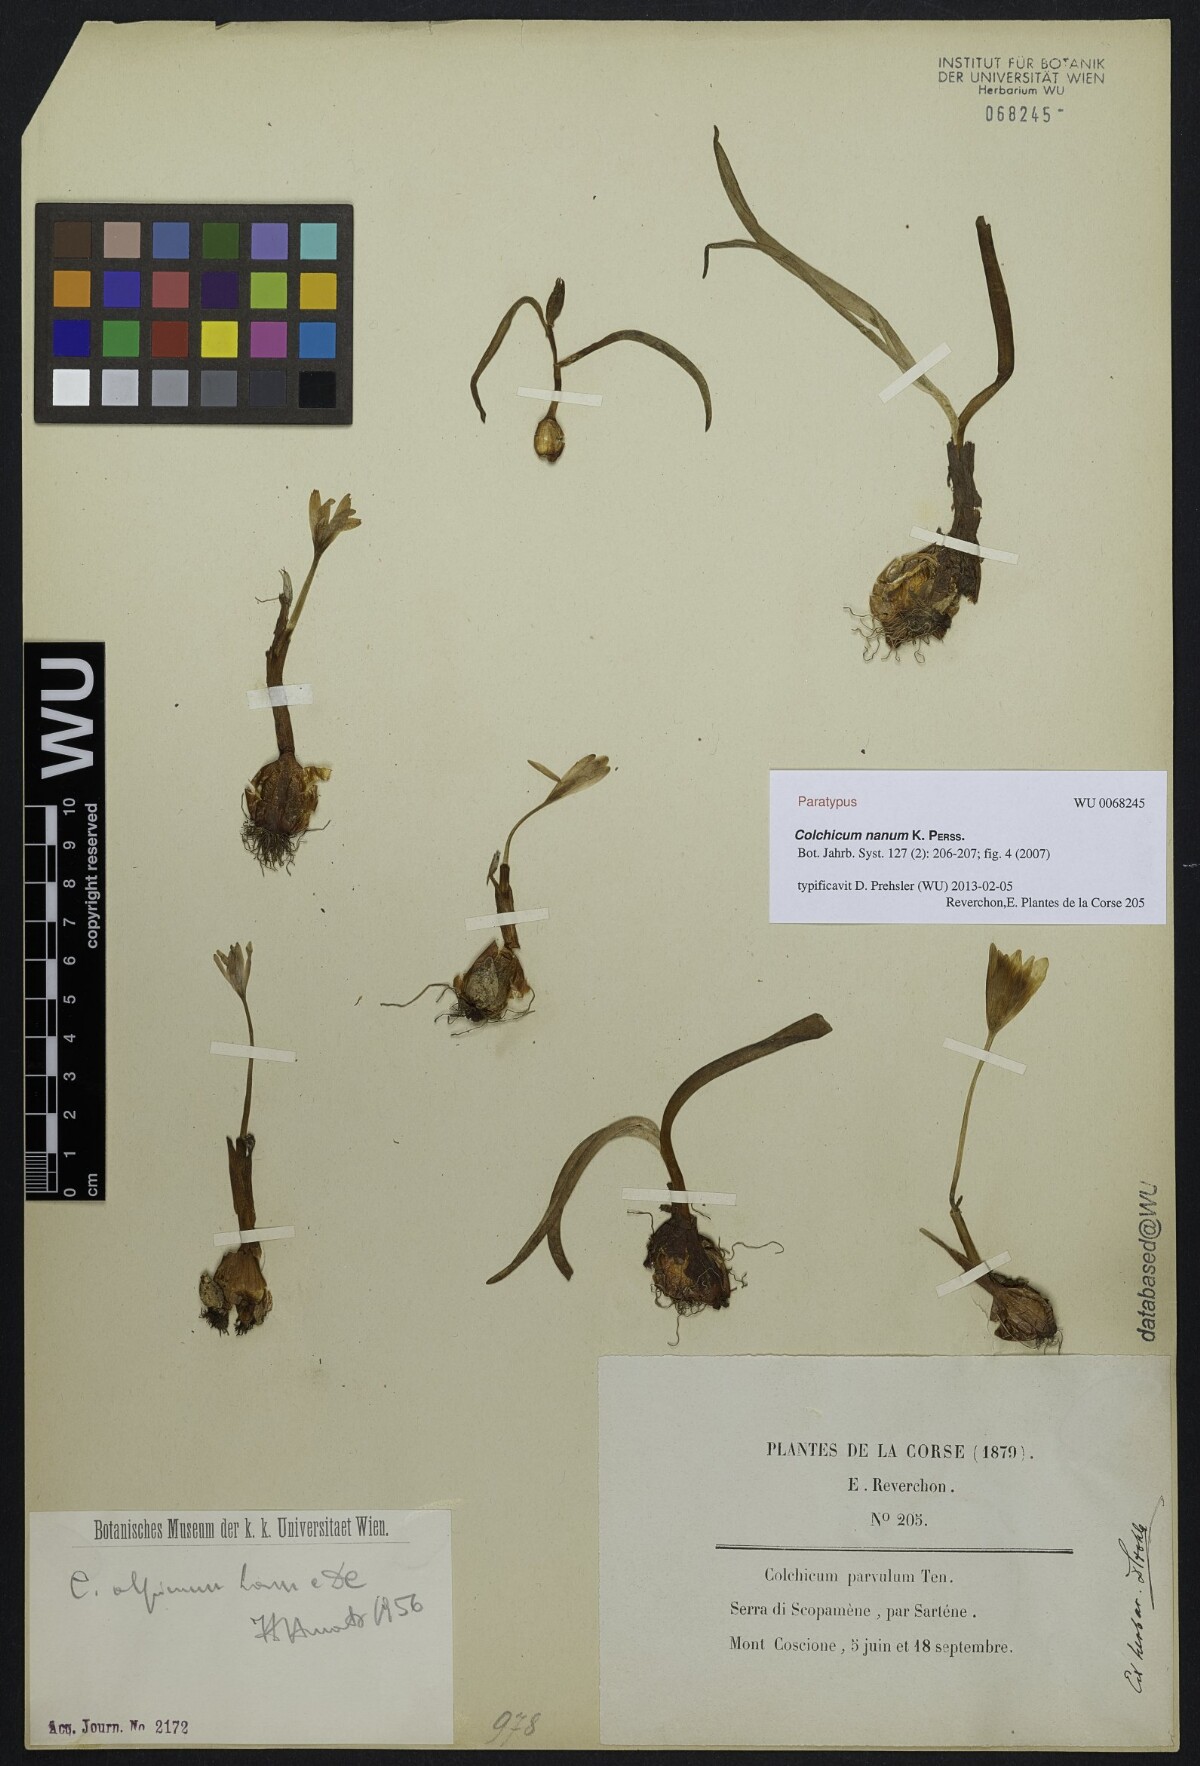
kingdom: Plantae
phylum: Tracheophyta
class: Liliopsida
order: Liliales
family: Colchicaceae
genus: Colchicum
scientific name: Colchicum nanum
